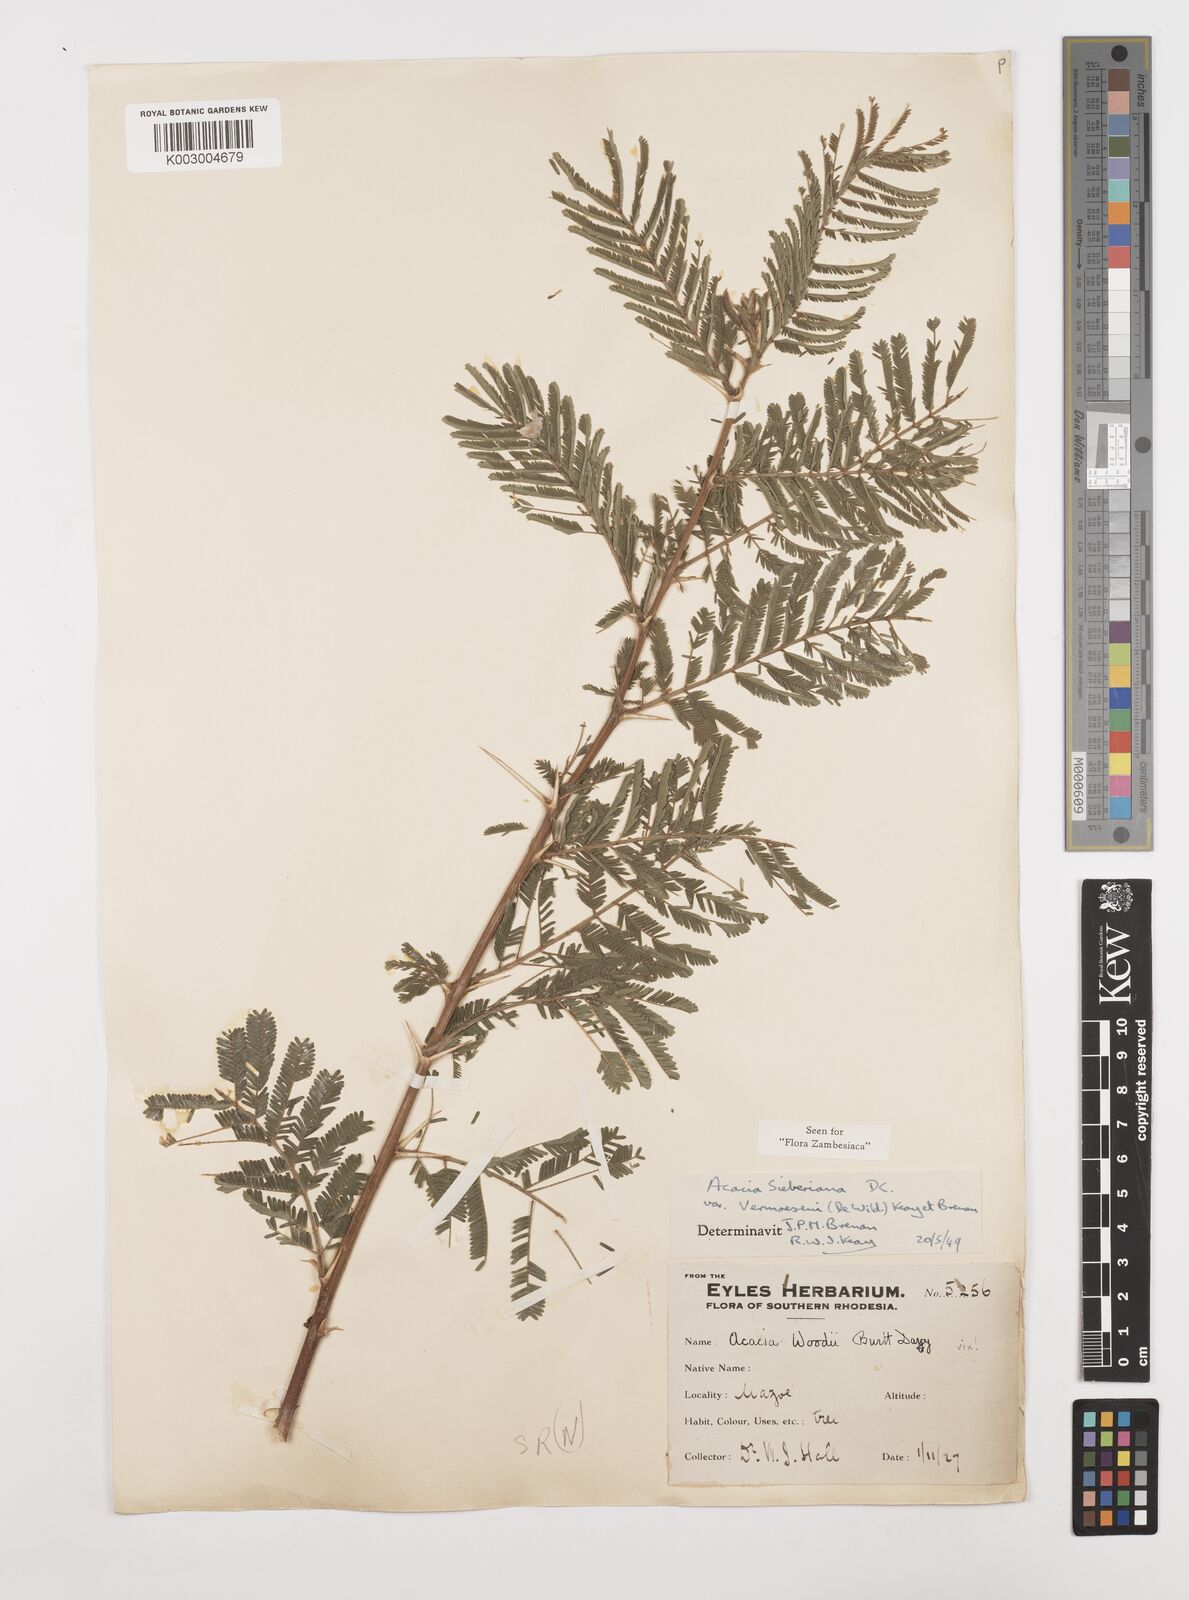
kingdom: Plantae
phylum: Tracheophyta
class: Magnoliopsida
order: Fabales
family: Fabaceae
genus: Vachellia
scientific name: Vachellia sieberiana
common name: Flat-topped thorn
